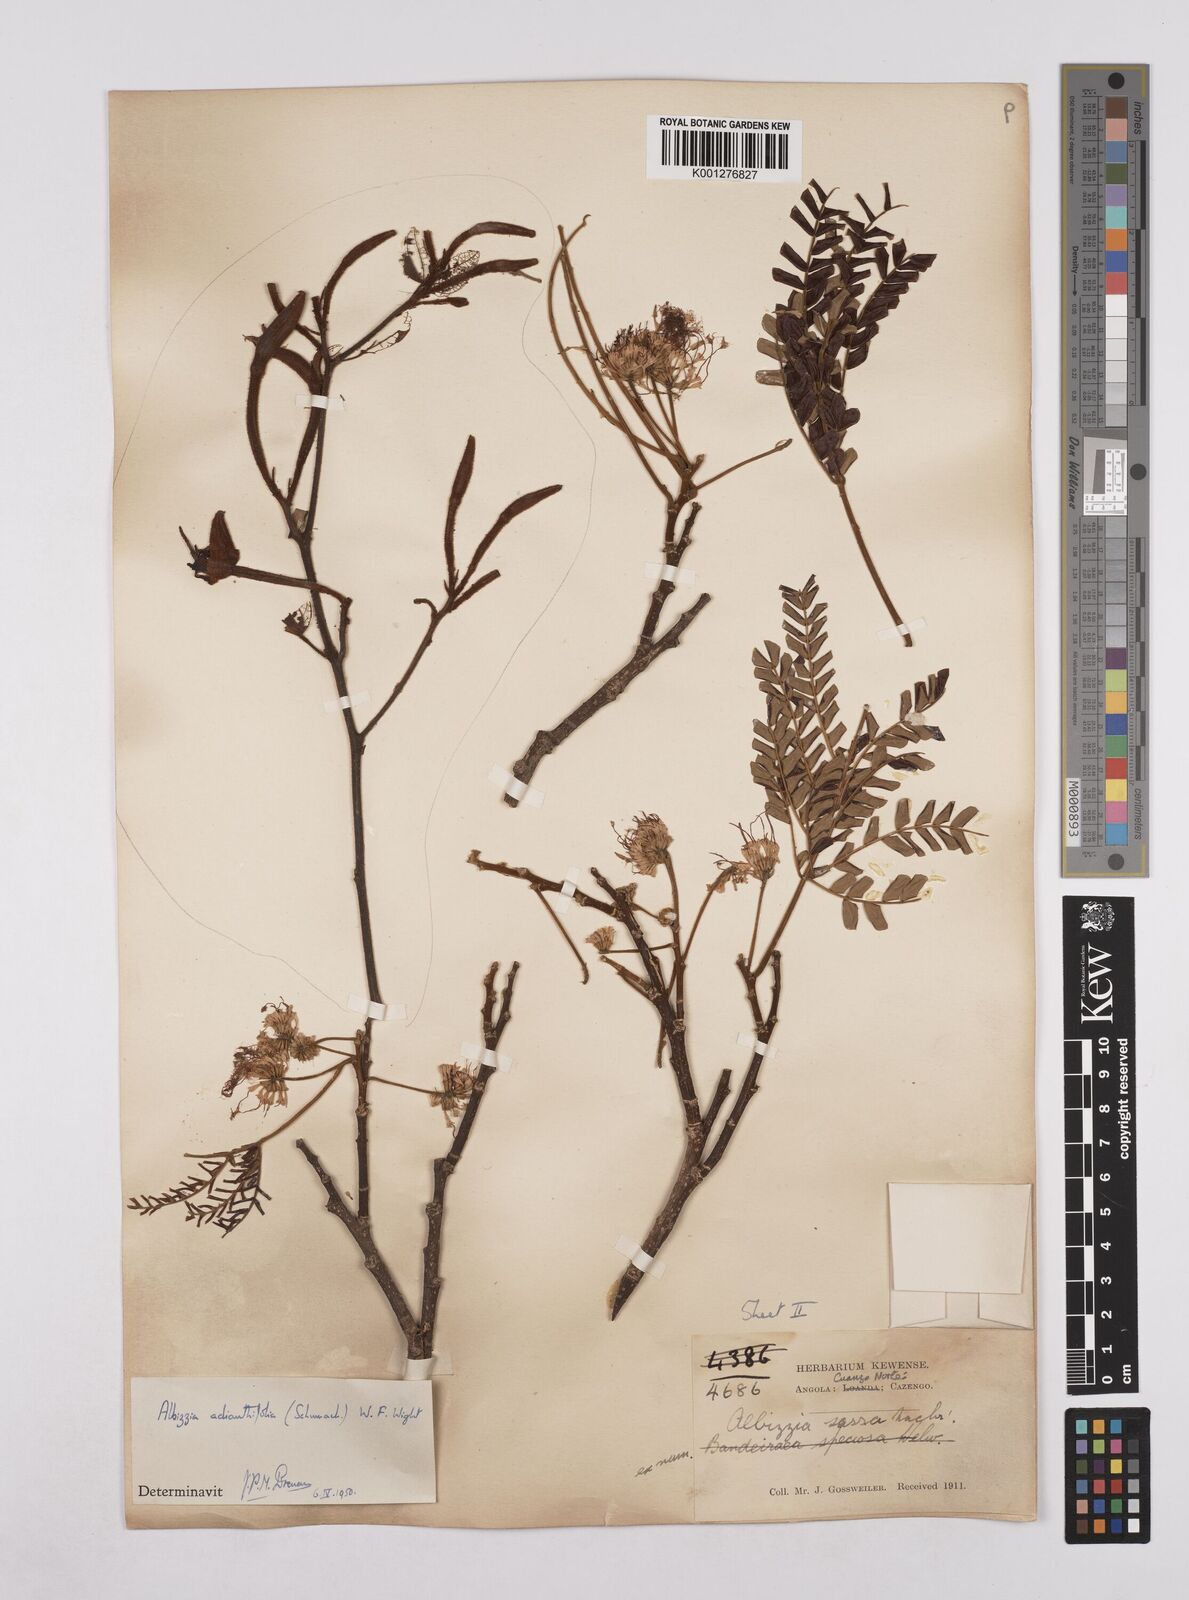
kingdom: Plantae
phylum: Tracheophyta
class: Magnoliopsida
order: Fabales
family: Fabaceae
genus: Albizia
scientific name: Albizia adianthifolia
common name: West african albizia
